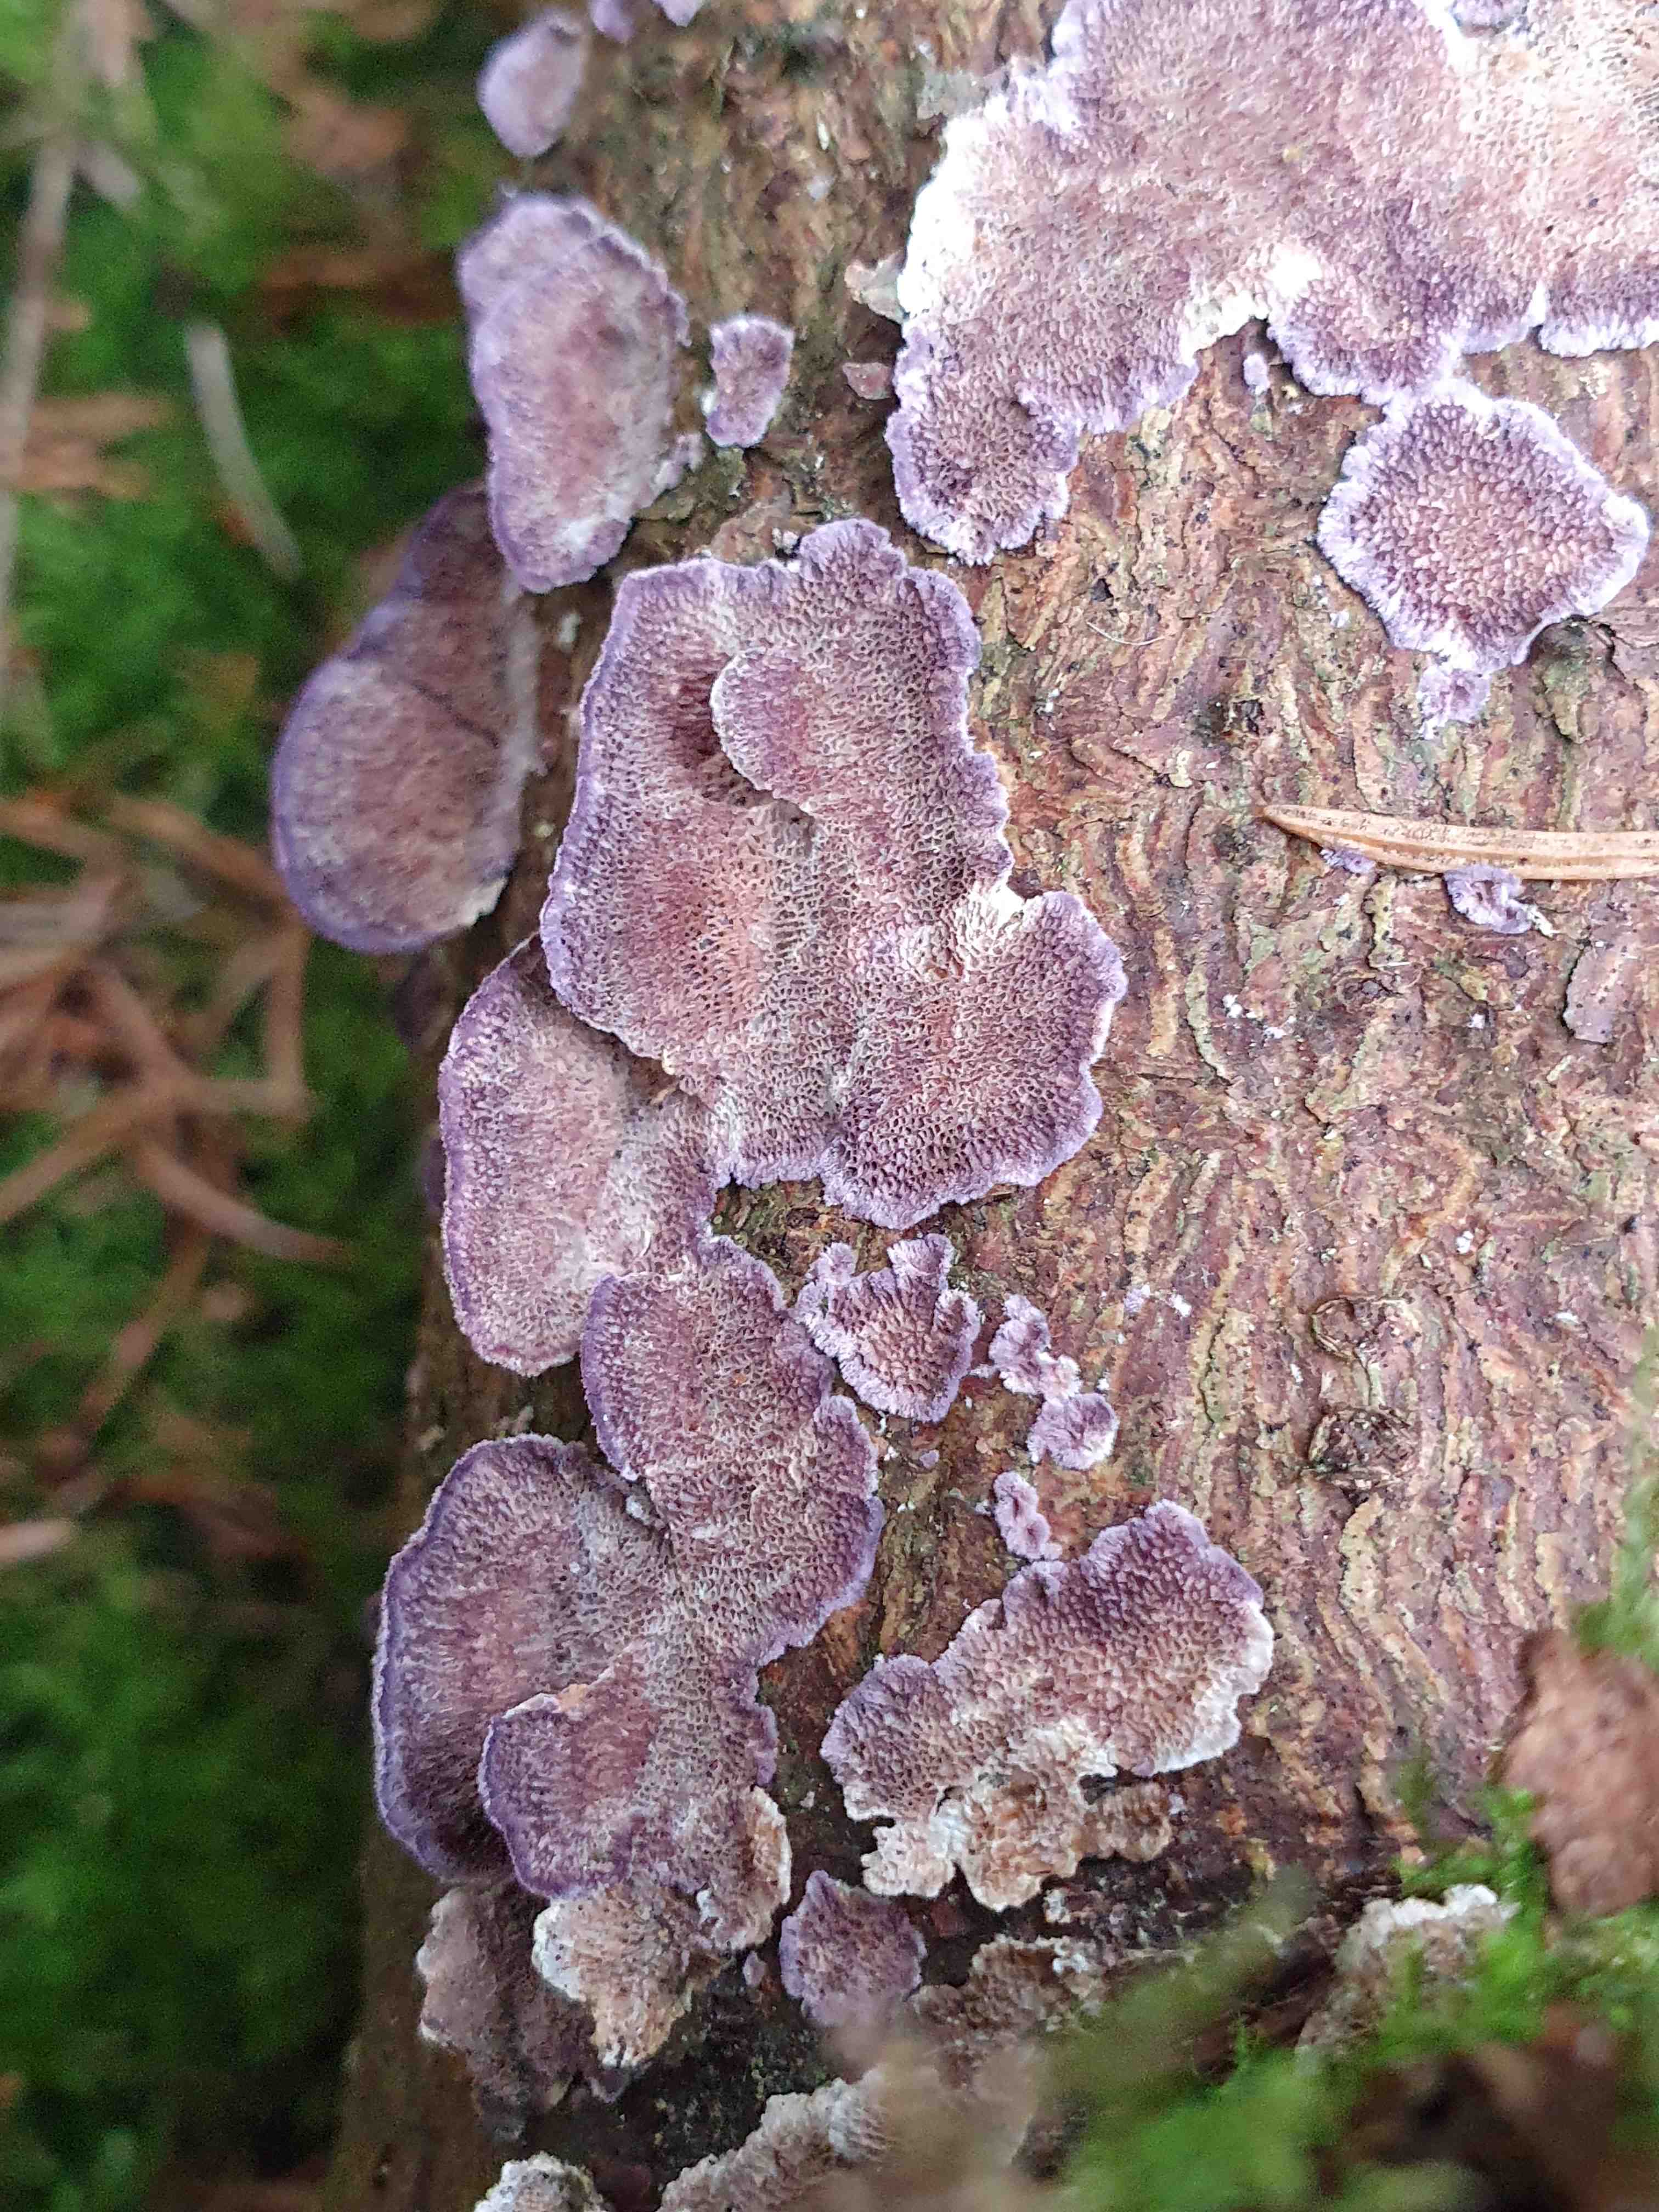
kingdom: Fungi
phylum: Basidiomycota
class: Agaricomycetes
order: Hymenochaetales
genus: Trichaptum
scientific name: Trichaptum abietinum
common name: almindelig violporesvamp
